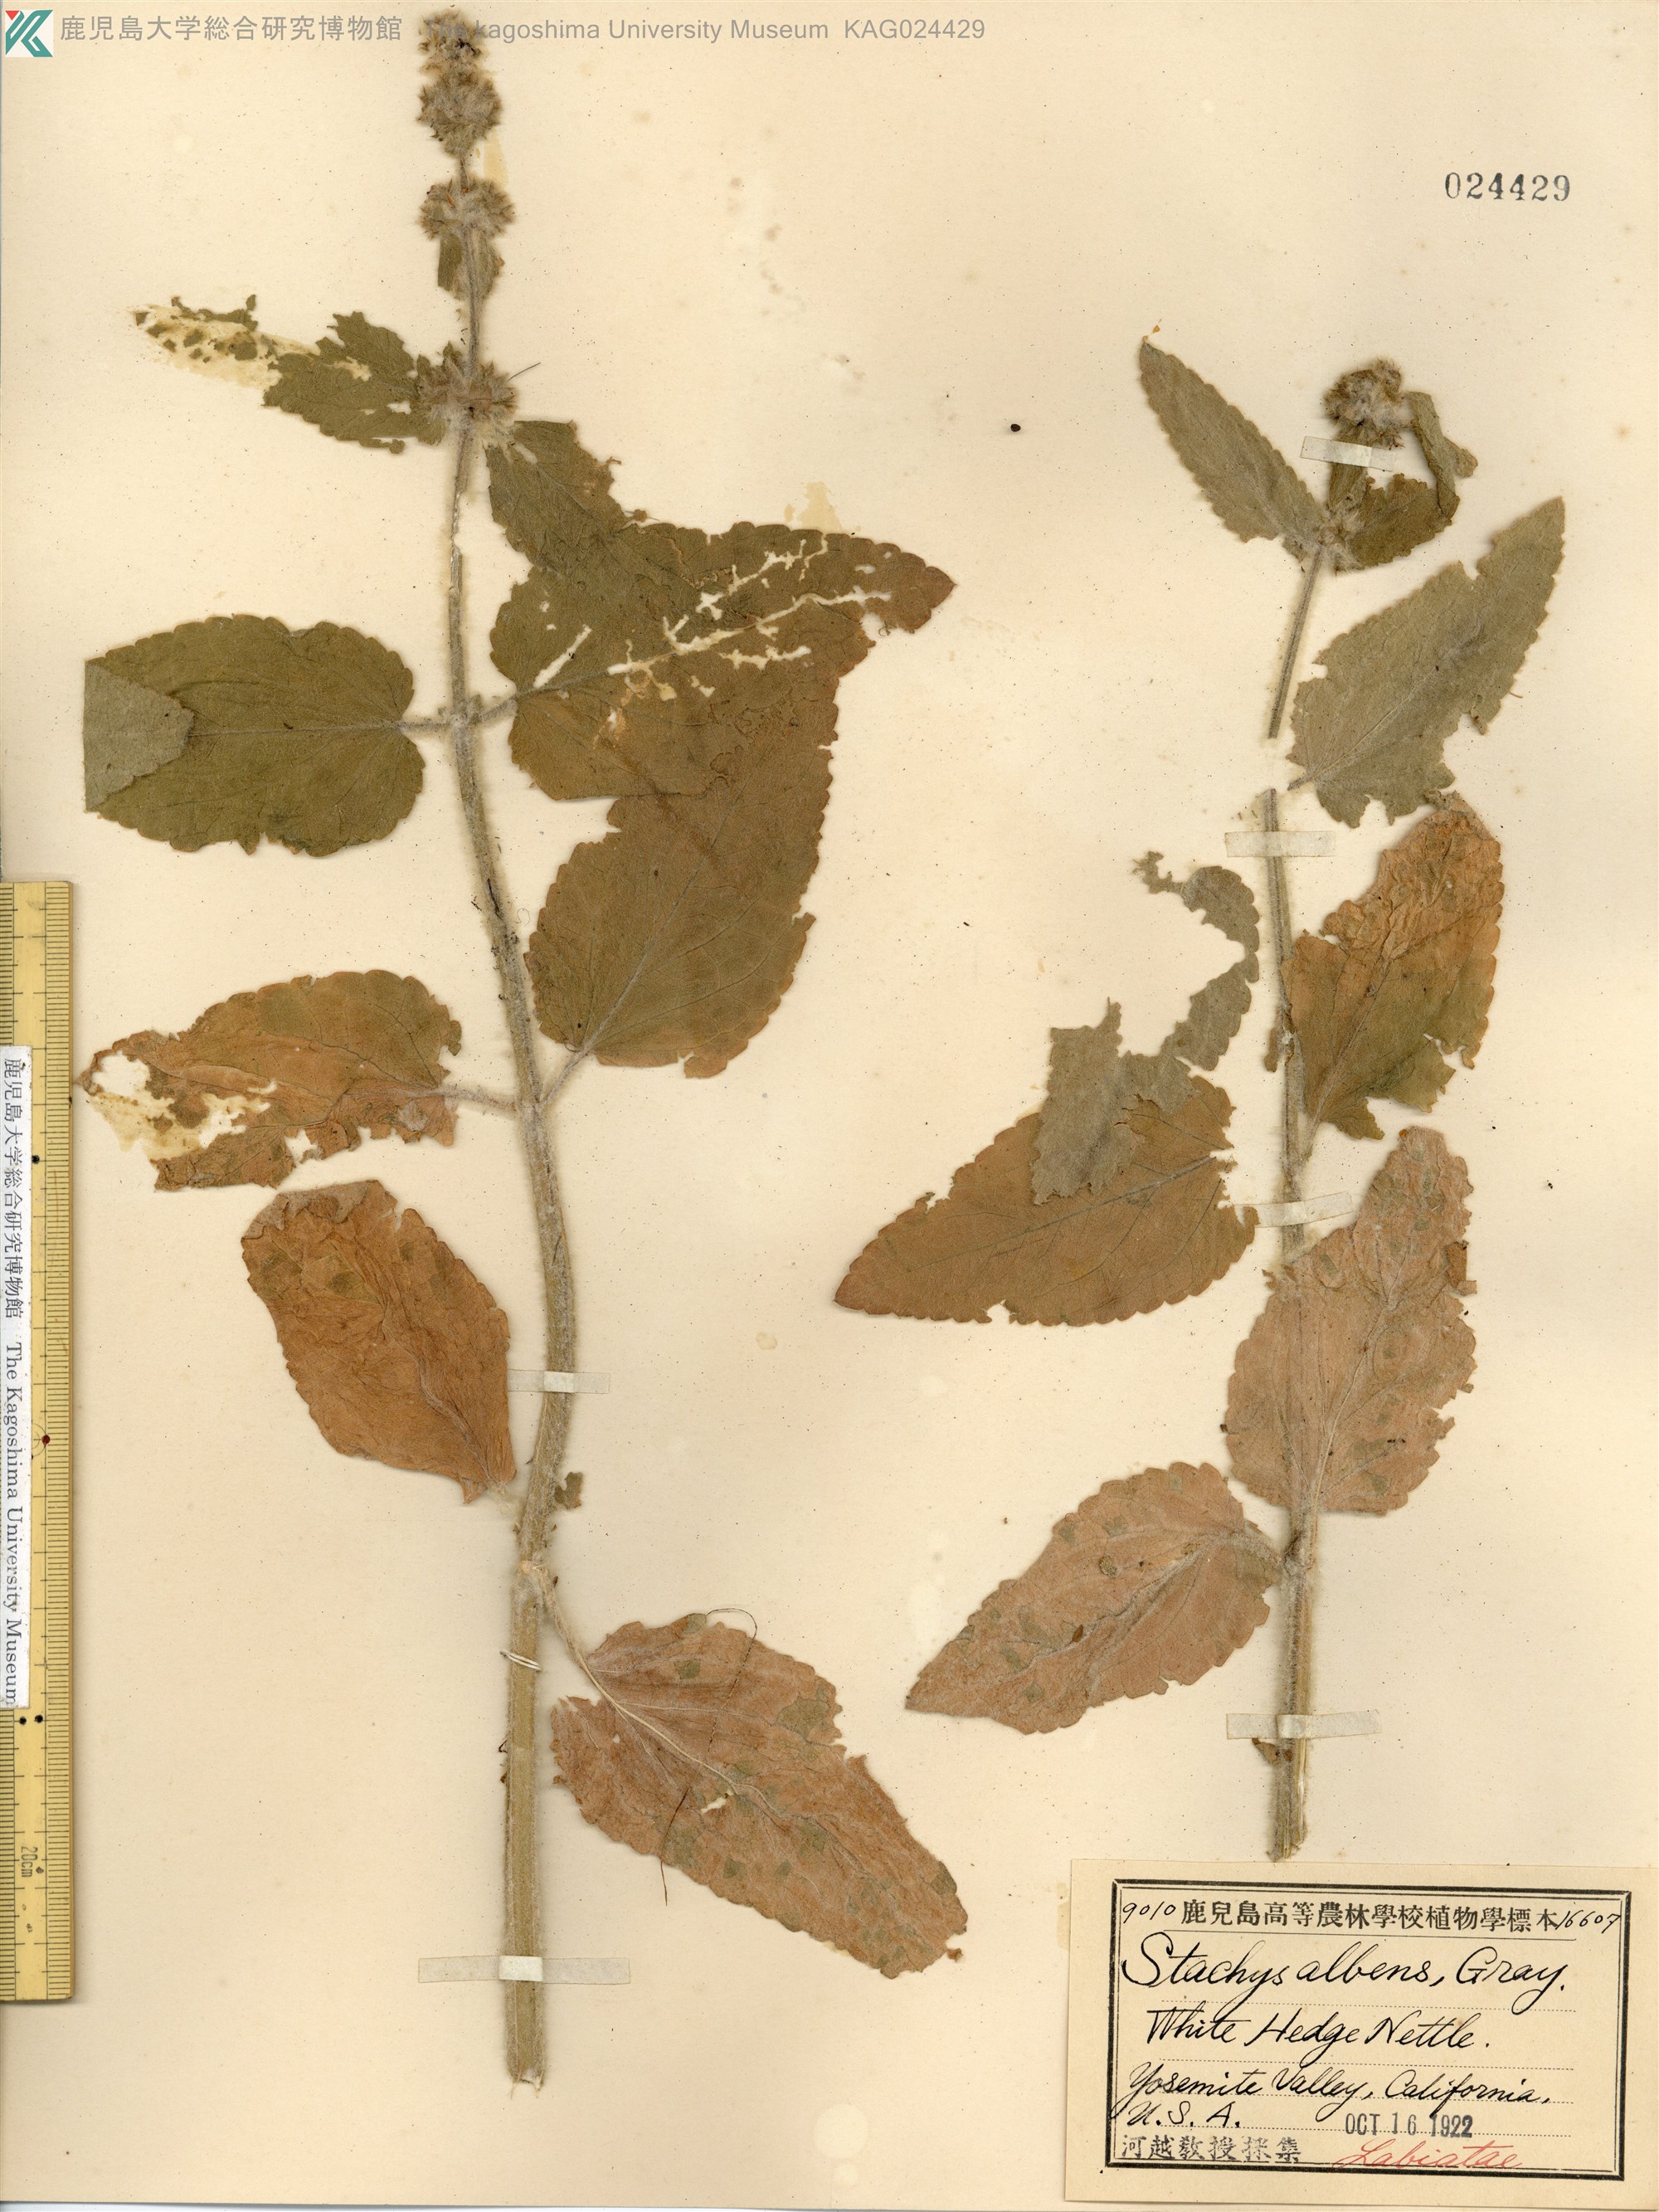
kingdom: Plantae
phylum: Tracheophyta
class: Magnoliopsida
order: Lamiales
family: Lamiaceae
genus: Stachys
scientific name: Stachys albens
